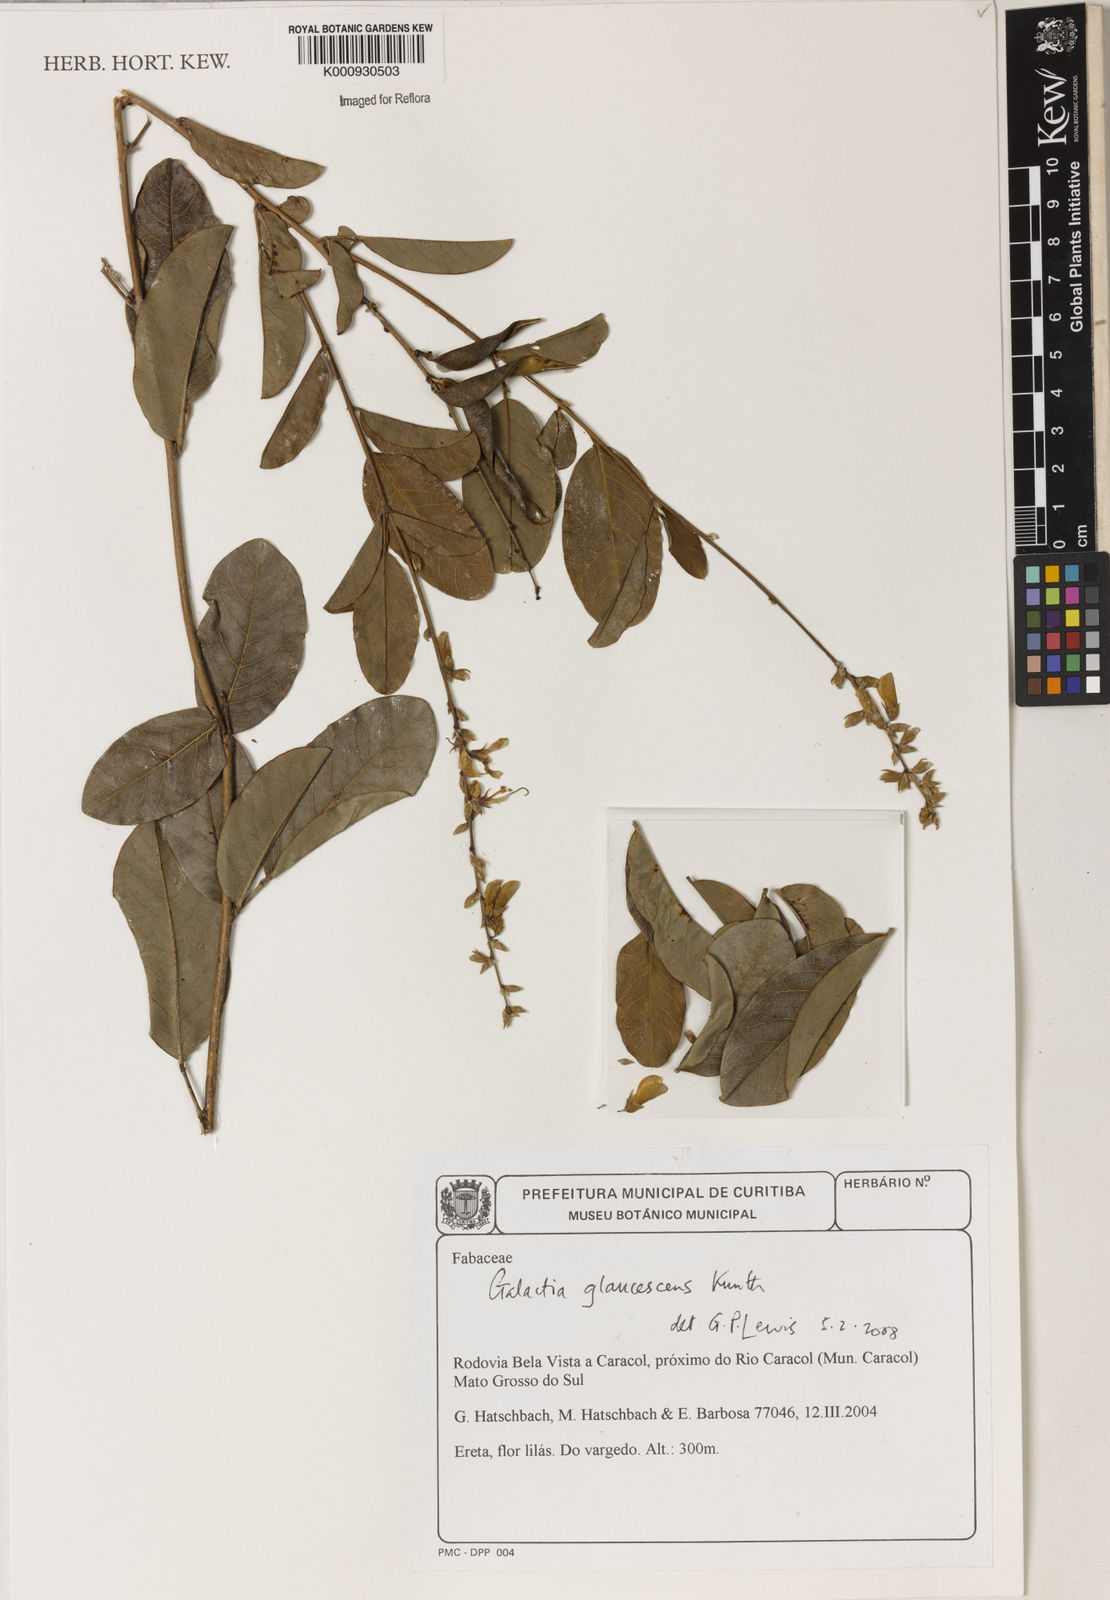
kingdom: Plantae
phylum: Tracheophyta
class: Magnoliopsida
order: Fabales
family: Fabaceae
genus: Galactia
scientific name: Galactia glaucescens
